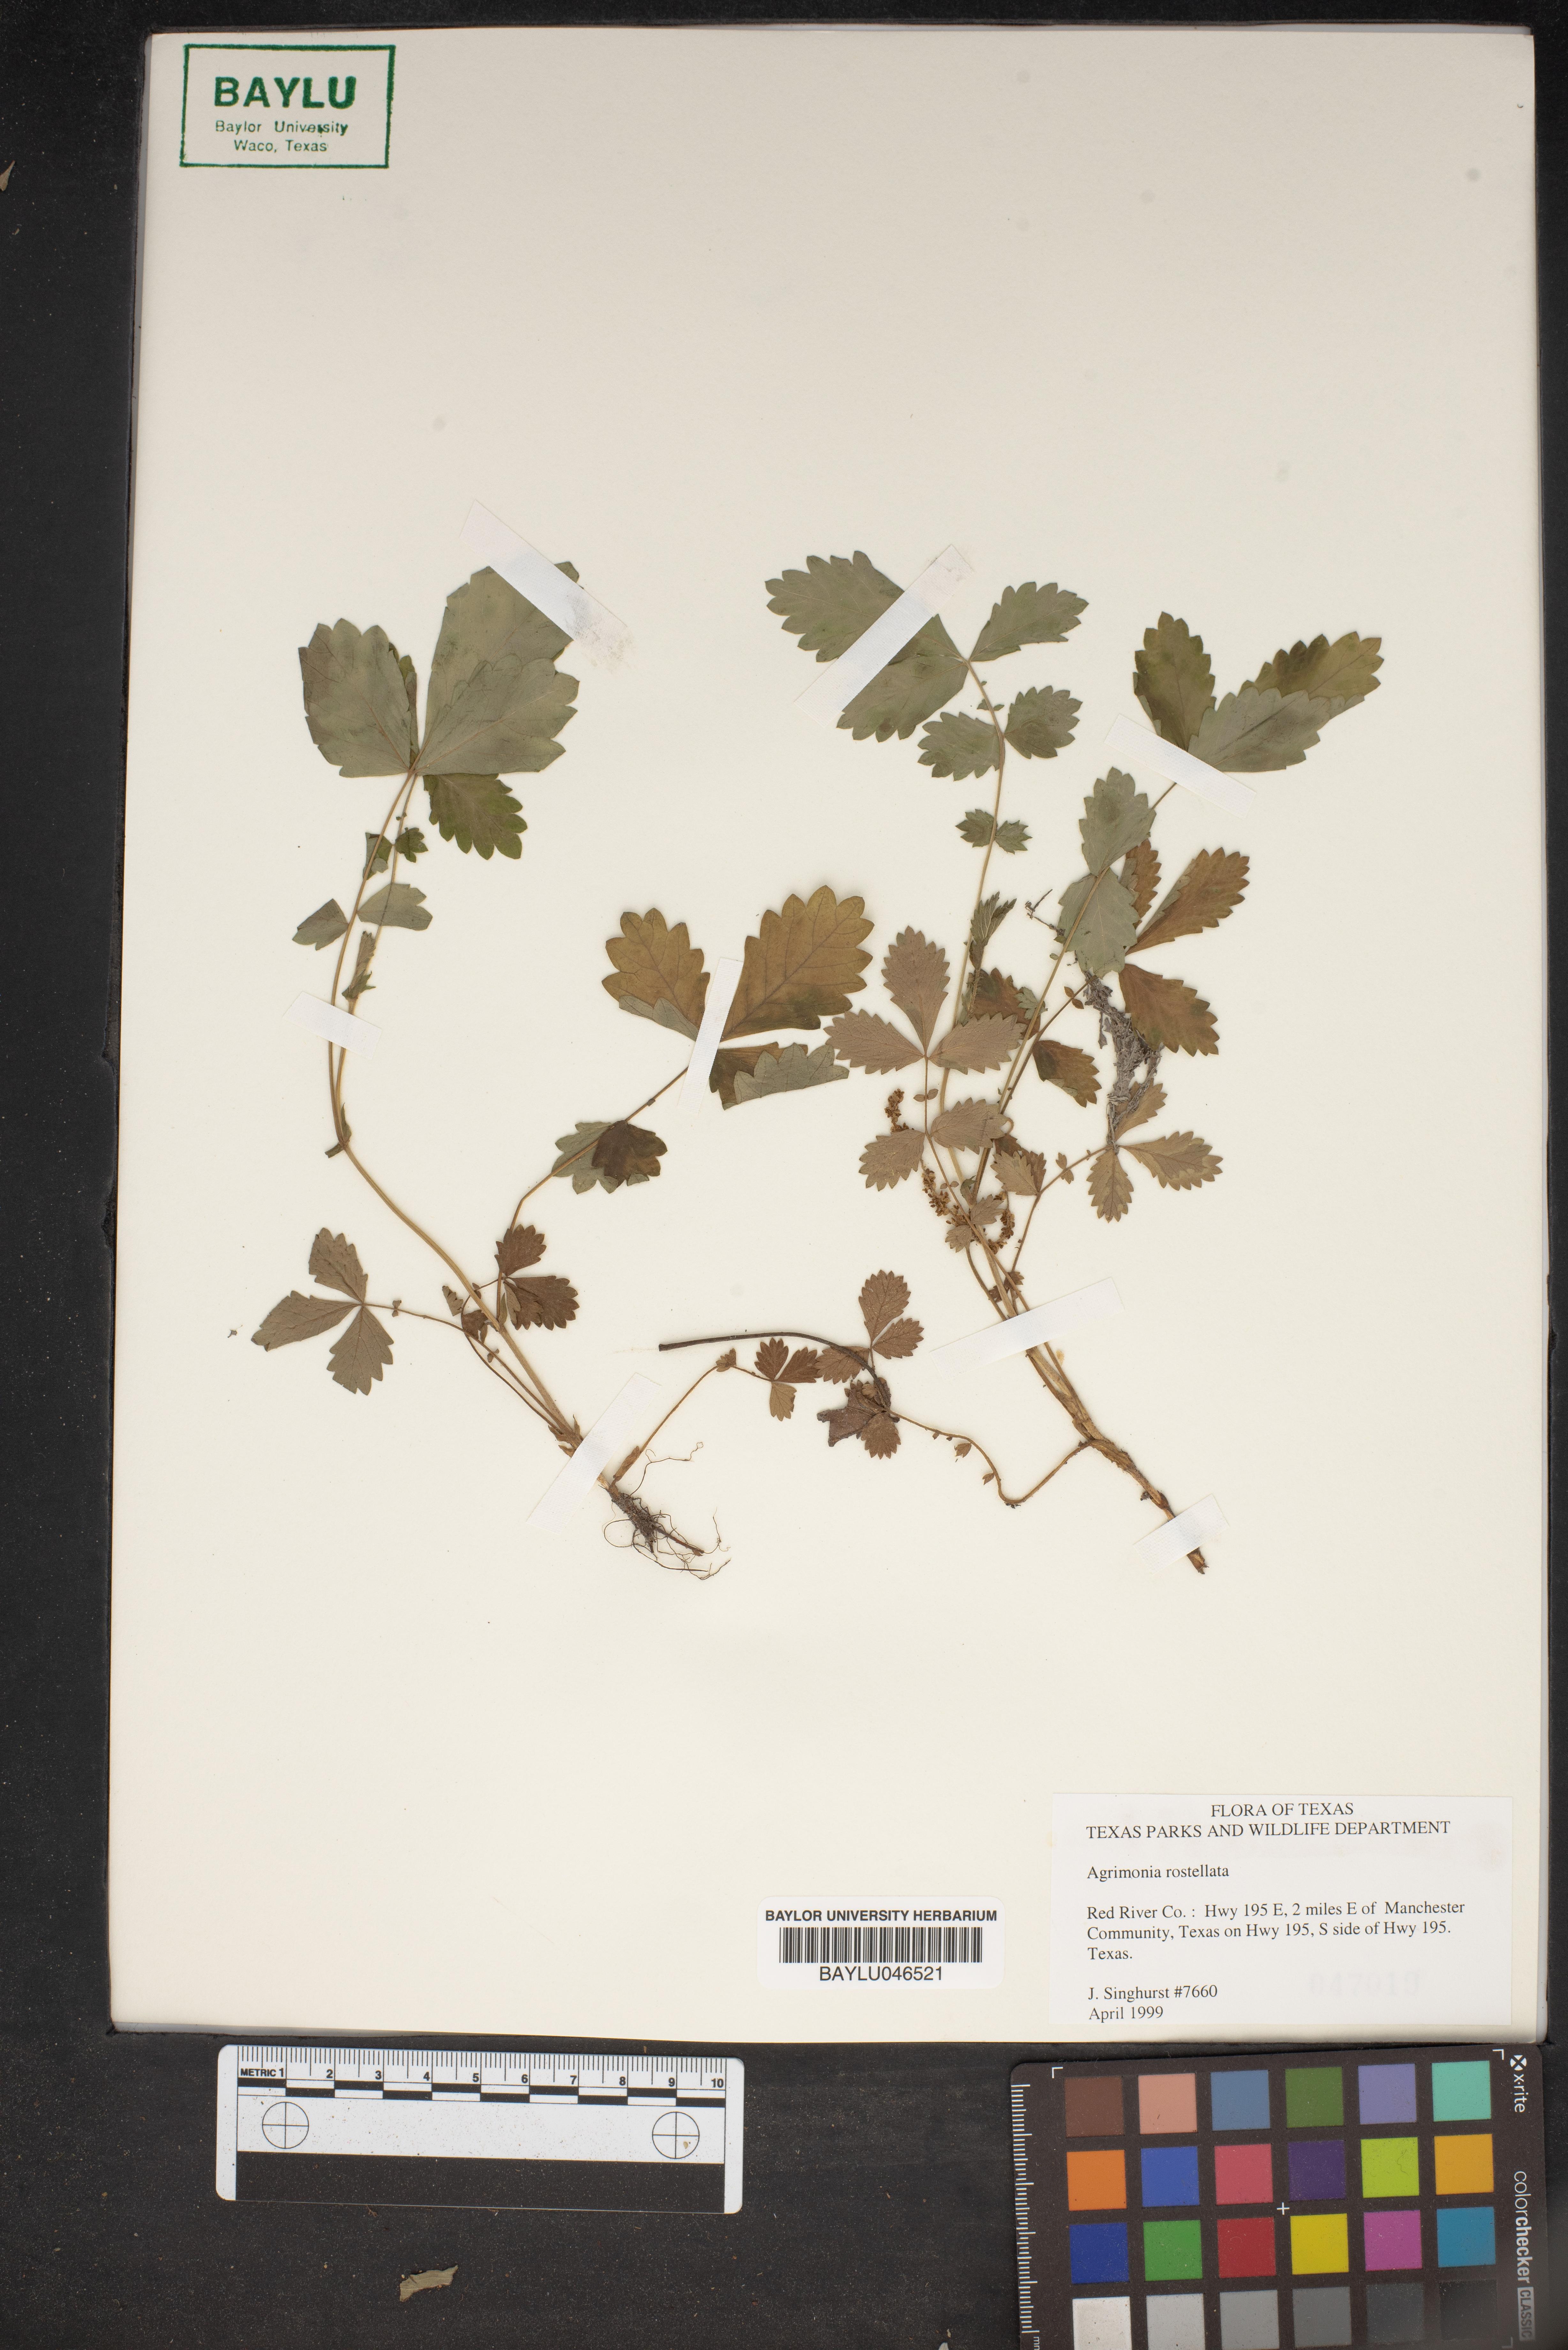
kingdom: Plantae
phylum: Tracheophyta
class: Magnoliopsida
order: Rosales
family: Rosaceae
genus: Agrimonia
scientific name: Agrimonia rostellata
